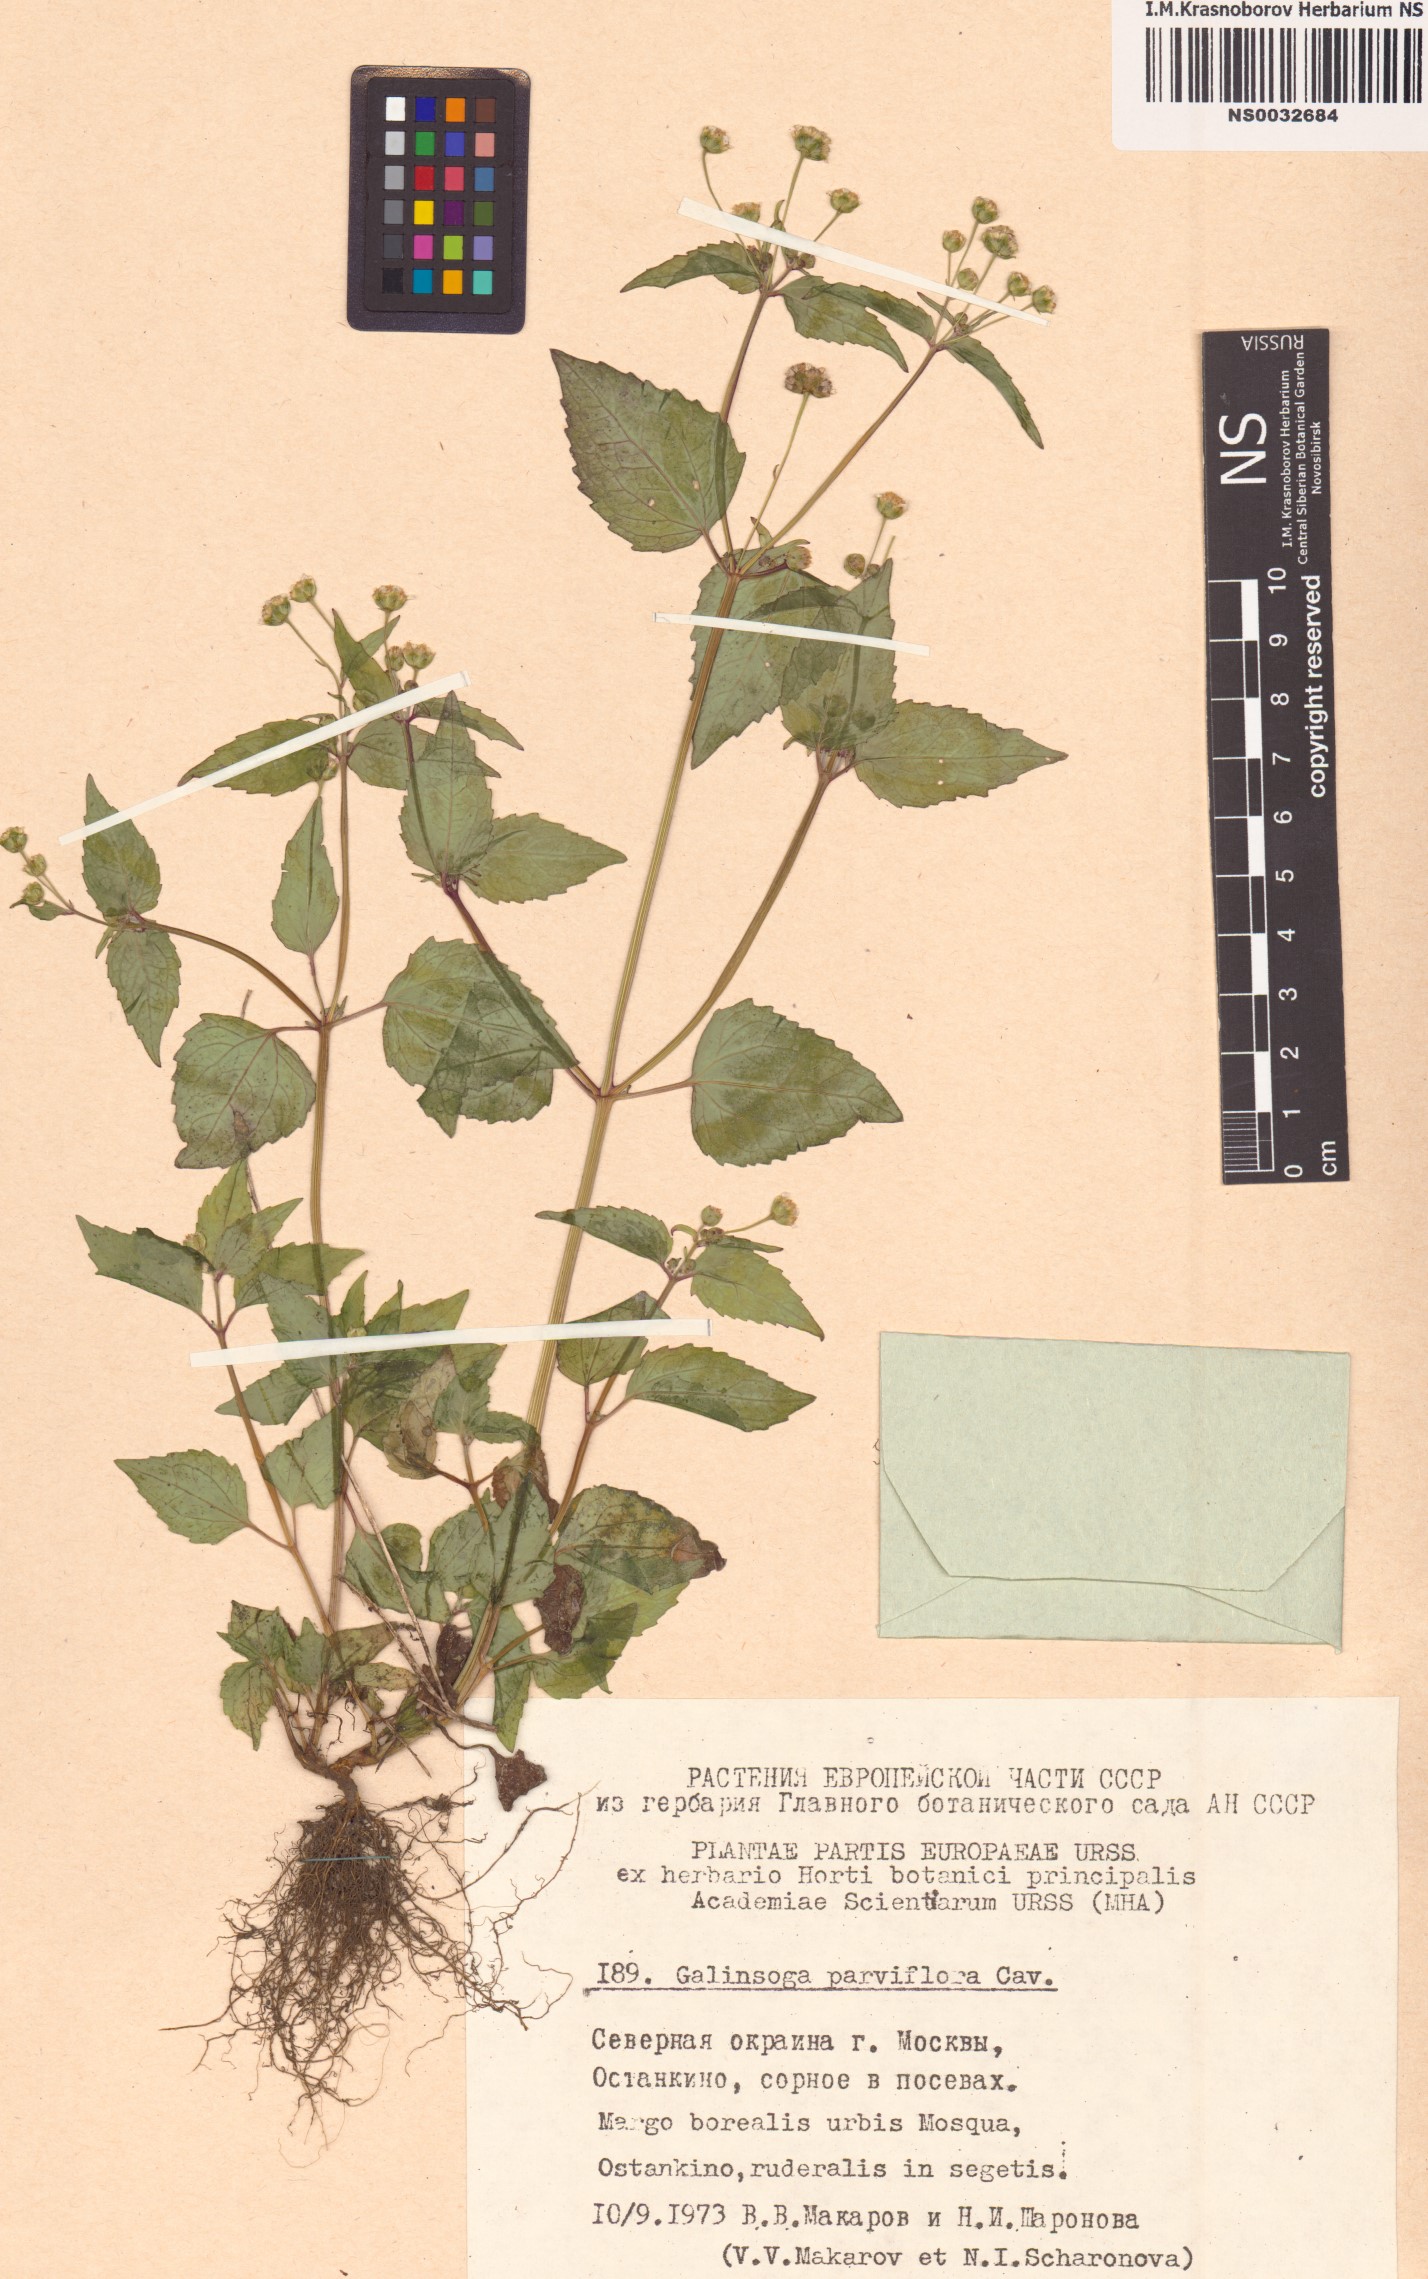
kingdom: Plantae
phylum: Tracheophyta
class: Magnoliopsida
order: Asterales
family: Asteraceae
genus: Galinsoga
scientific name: Galinsoga parviflora
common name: Gallant soldier
